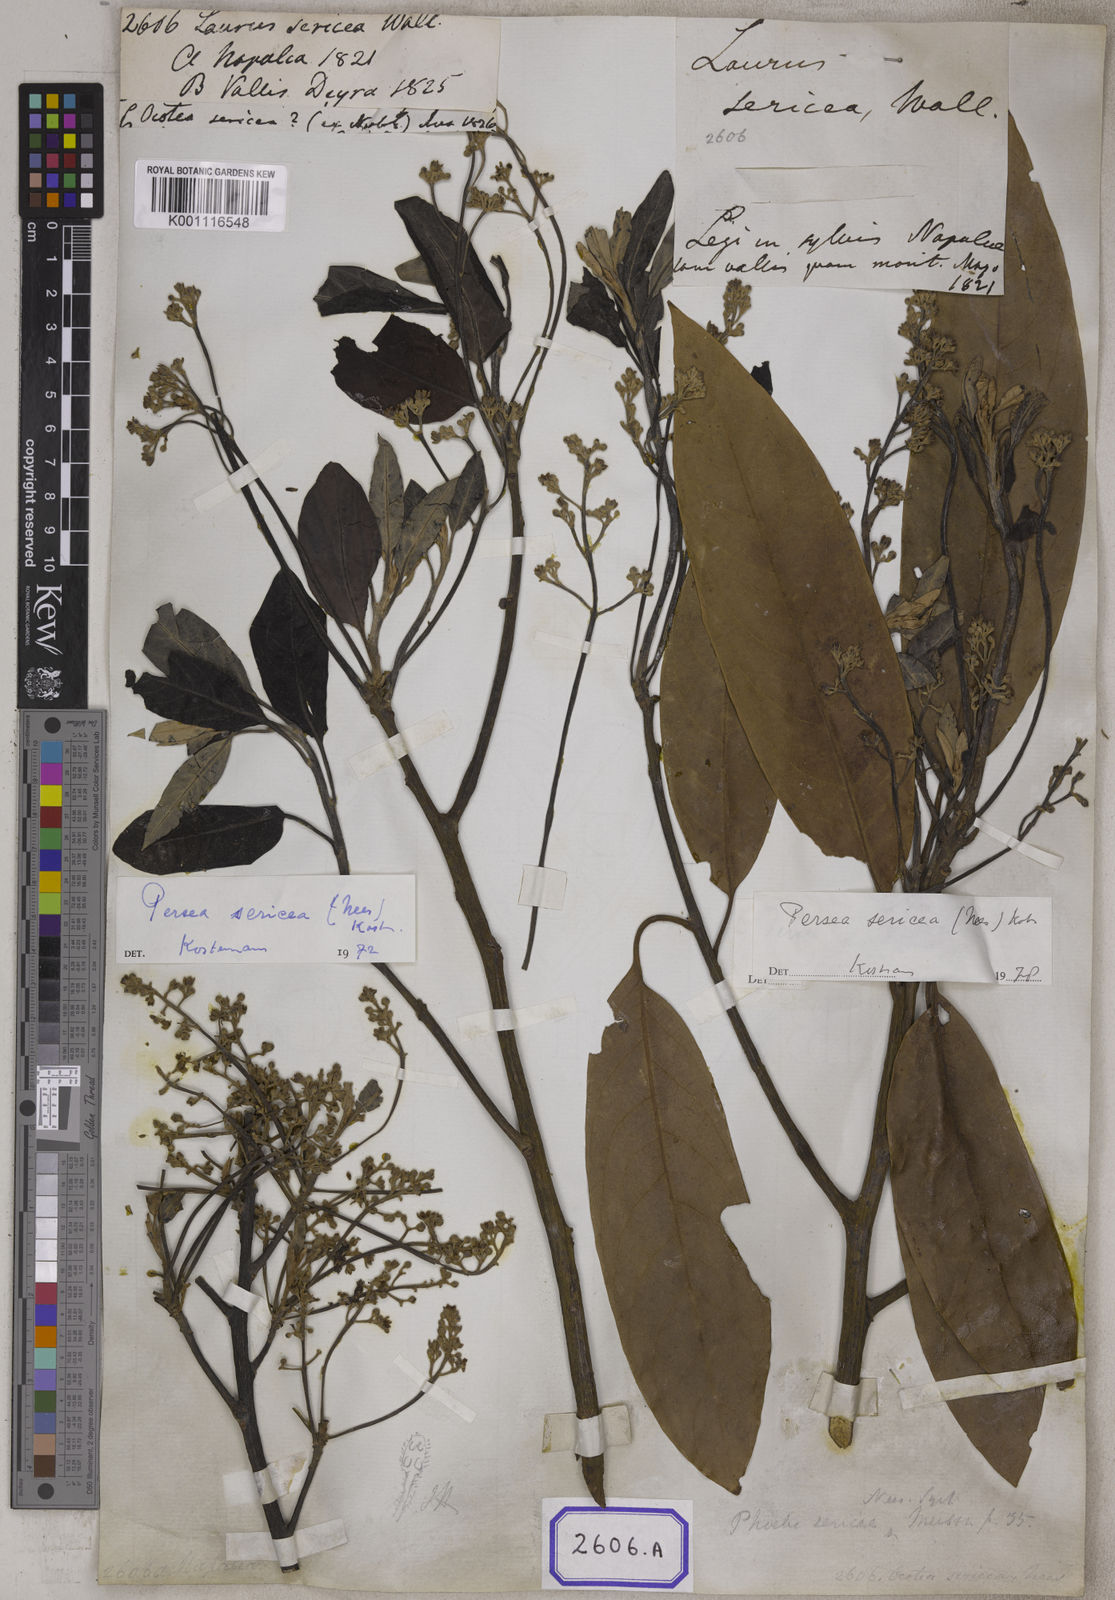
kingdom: Plantae
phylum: Tracheophyta
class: Magnoliopsida
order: Laurales
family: Lauraceae
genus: Machilus
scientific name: Machilus sericea
